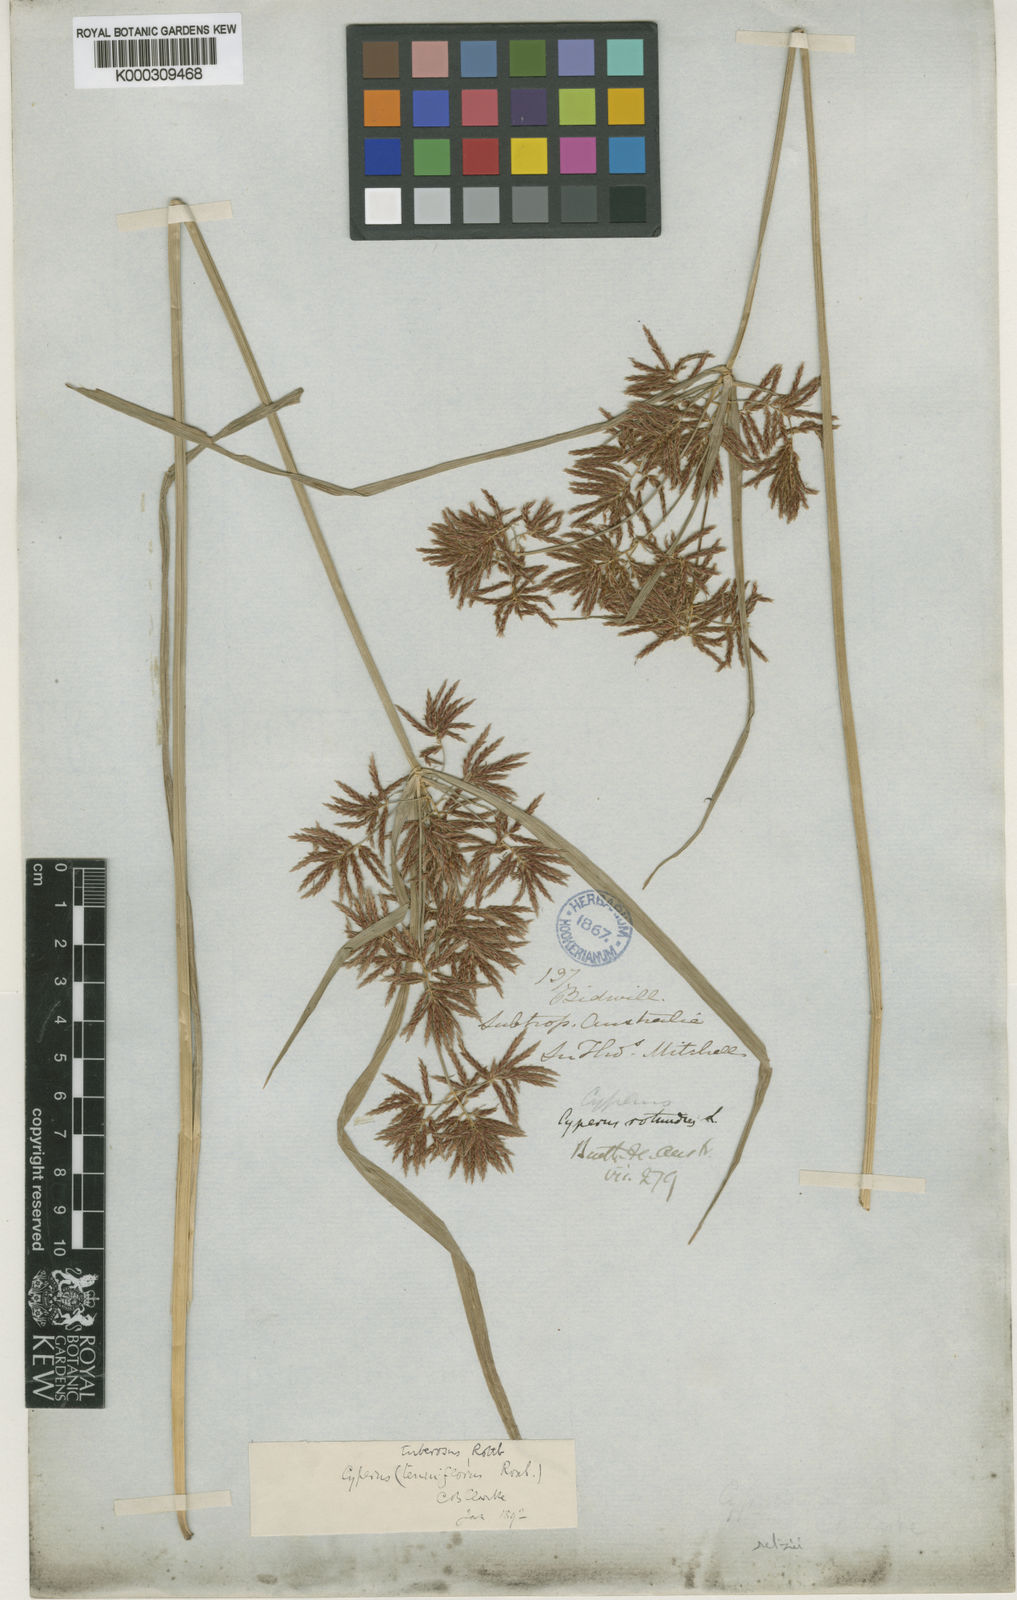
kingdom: Plantae
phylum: Tracheophyta
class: Liliopsida
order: Poales
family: Cyperaceae
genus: Cyperus
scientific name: Cyperus bifax
